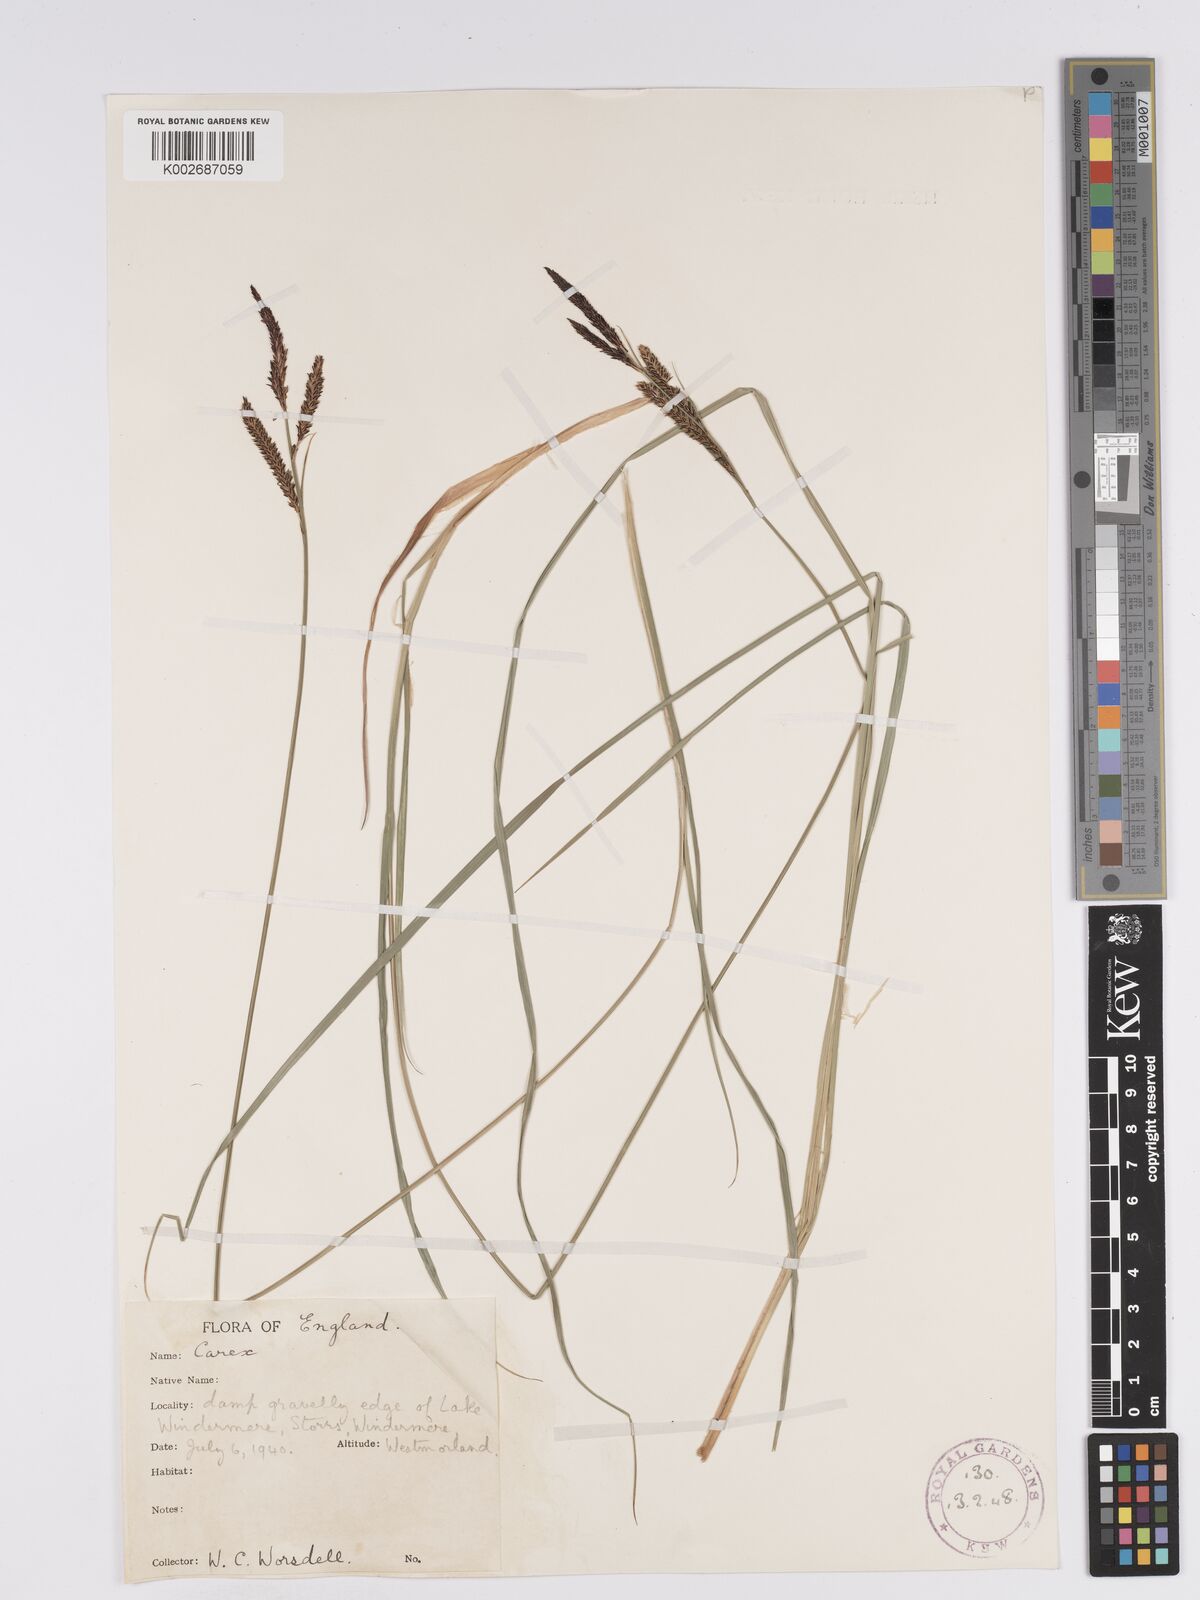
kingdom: Plantae
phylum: Tracheophyta
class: Liliopsida
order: Poales
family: Cyperaceae
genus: Carex
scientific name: Carex nigra
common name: Common sedge
